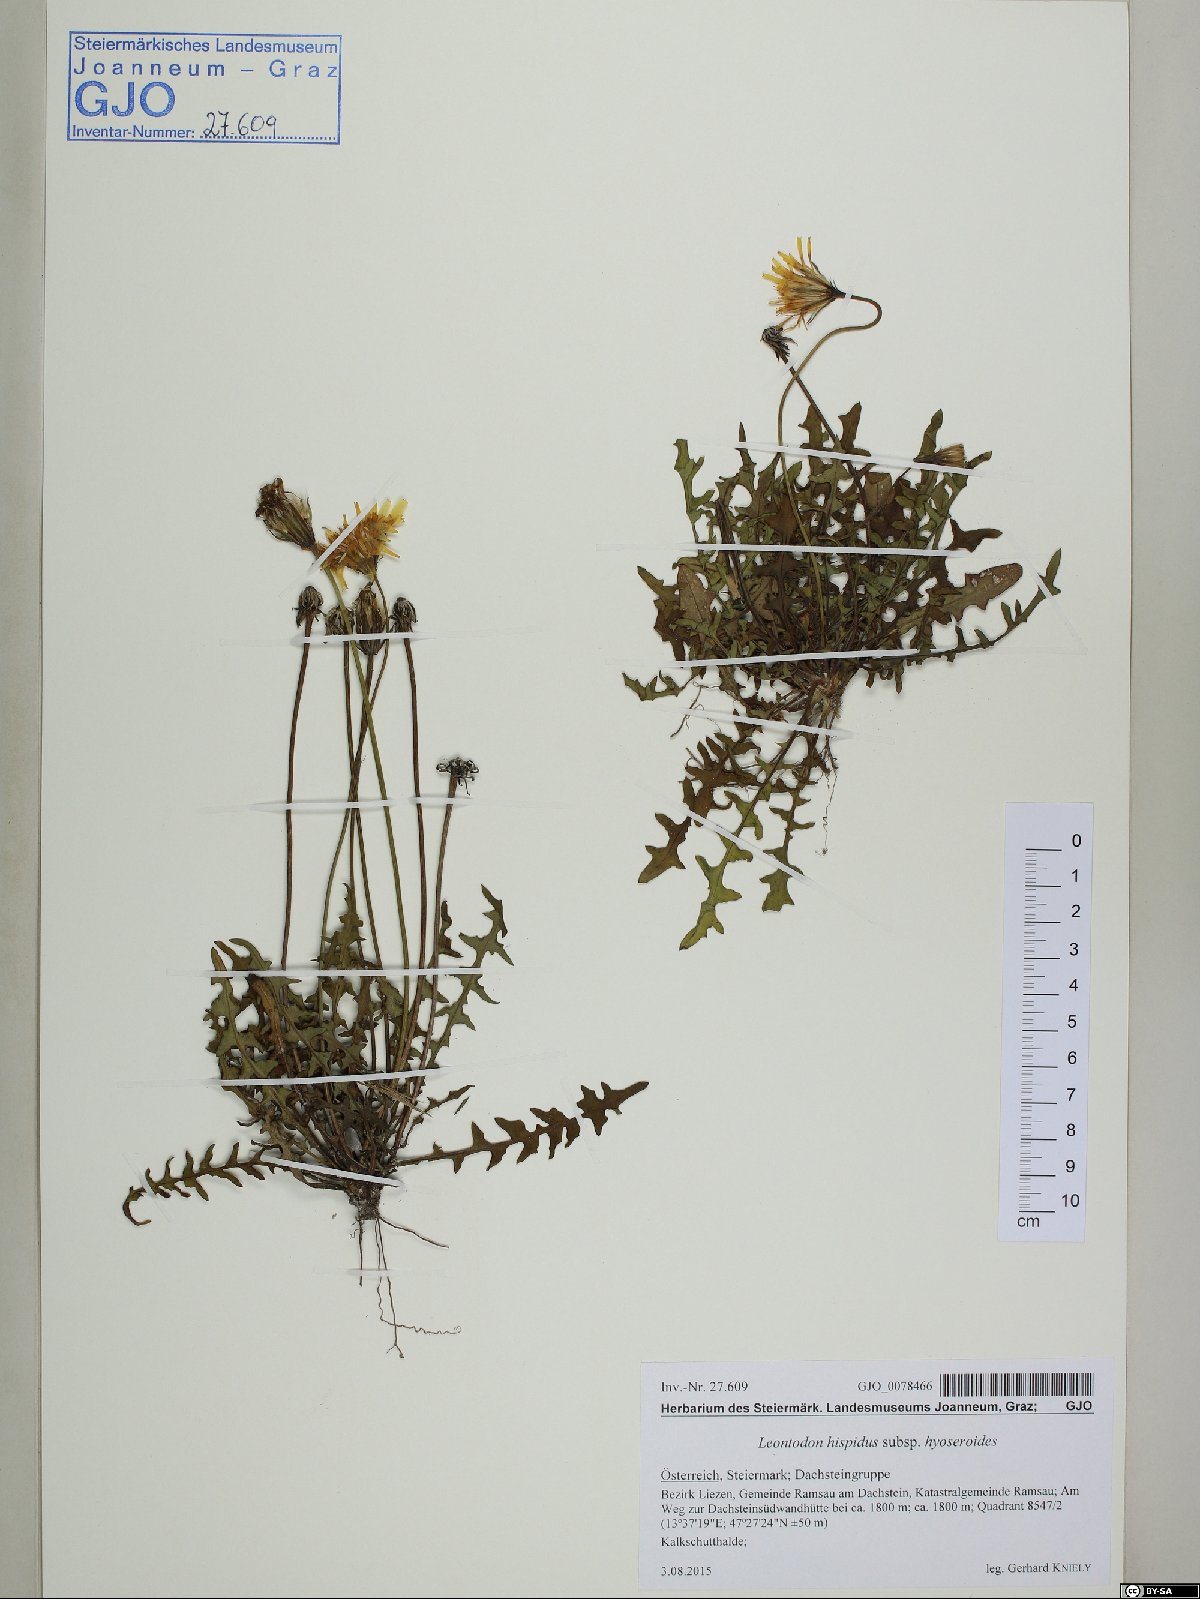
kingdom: Plantae
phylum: Tracheophyta
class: Magnoliopsida
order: Asterales
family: Asteraceae
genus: Leontodon
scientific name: Leontodon hyoseroides
